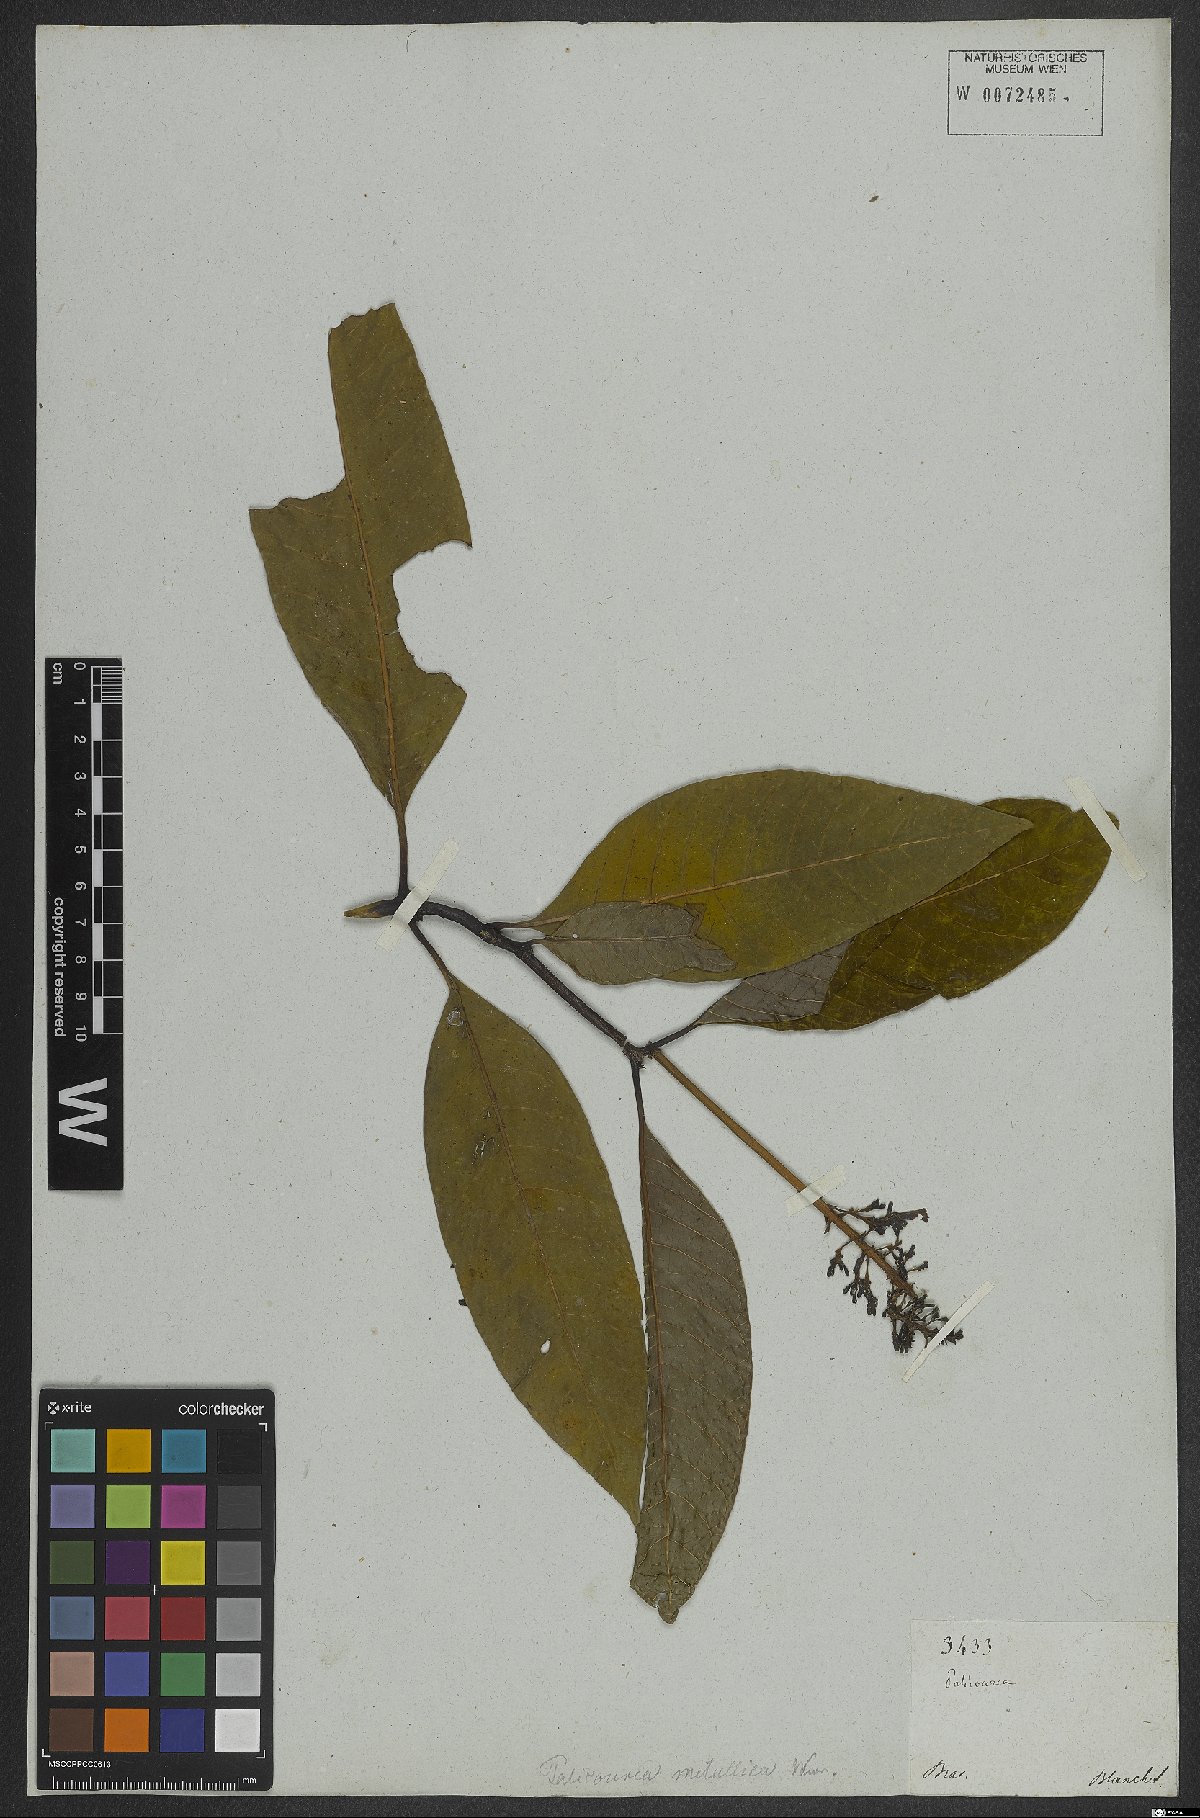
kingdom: Plantae
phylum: Tracheophyta
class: Magnoliopsida
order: Gentianales
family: Rubiaceae
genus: Palicourea
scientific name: Palicourea blanchetiana
